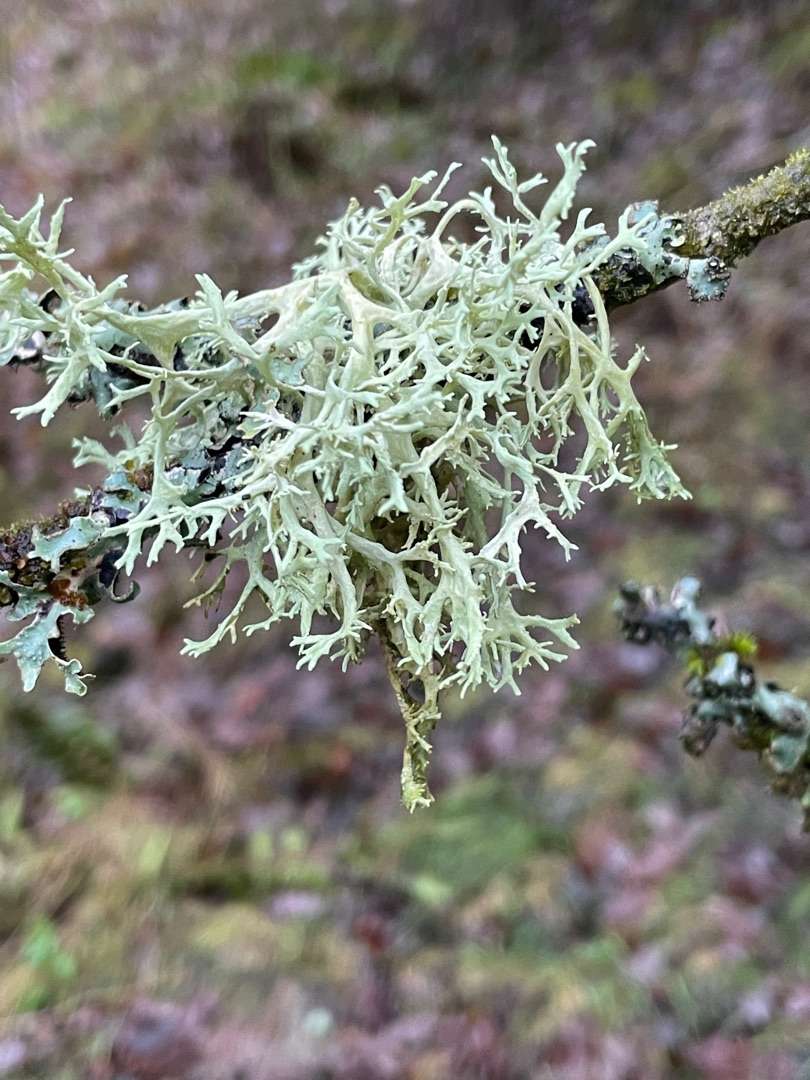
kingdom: Fungi
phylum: Ascomycota
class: Lecanoromycetes
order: Lecanorales
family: Parmeliaceae
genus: Evernia
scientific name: Evernia prunastri
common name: Almindelig slåenlav
